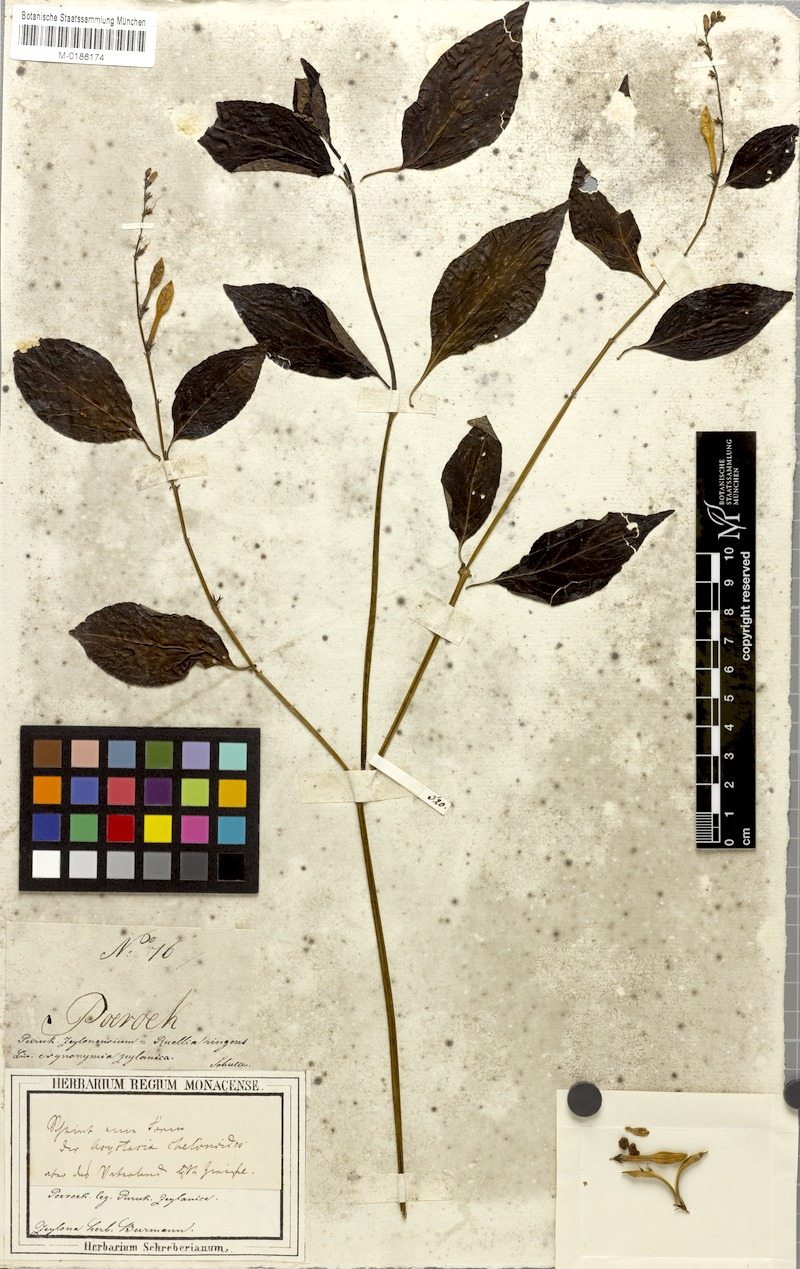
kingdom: Plantae
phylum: Tracheophyta
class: Magnoliopsida
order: Lamiales
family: Acanthaceae
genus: Asystasia
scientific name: Asystasia chelonoides
